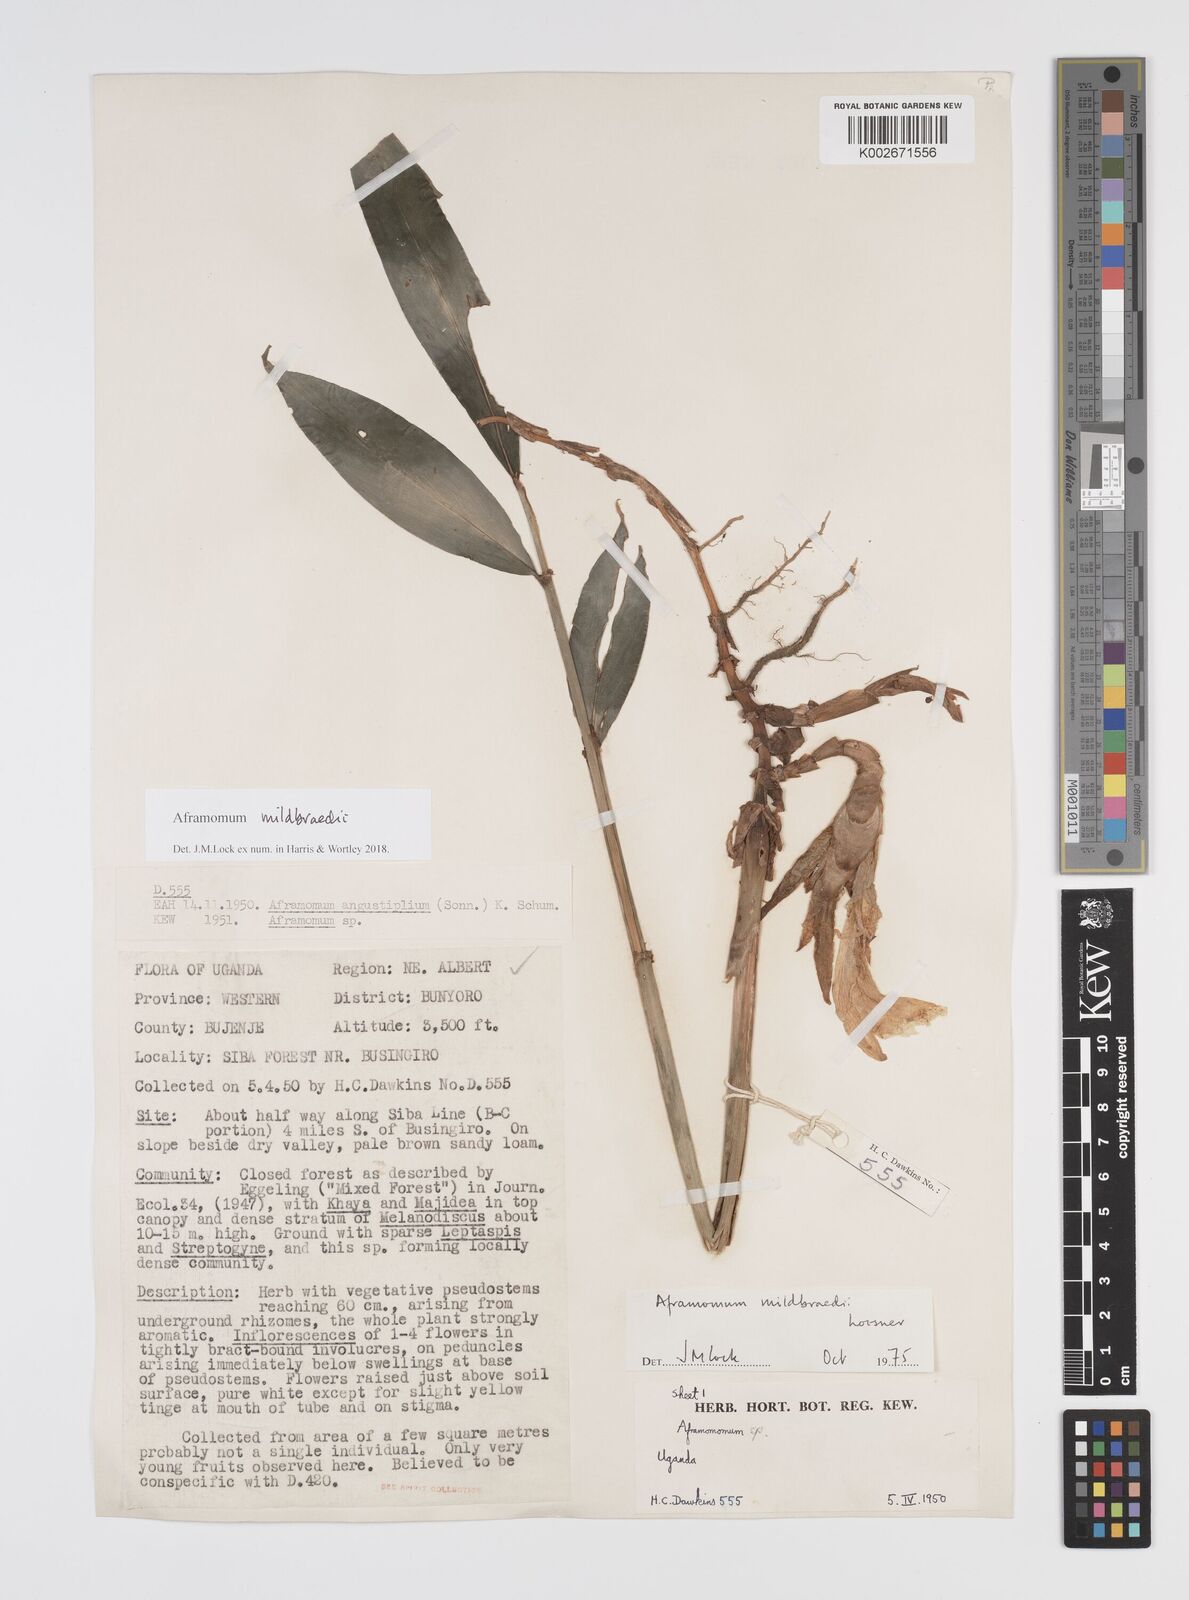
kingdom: Plantae
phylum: Tracheophyta
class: Liliopsida
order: Zingiberales
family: Zingiberaceae
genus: Aframomum
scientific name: Aframomum mildbraedii
